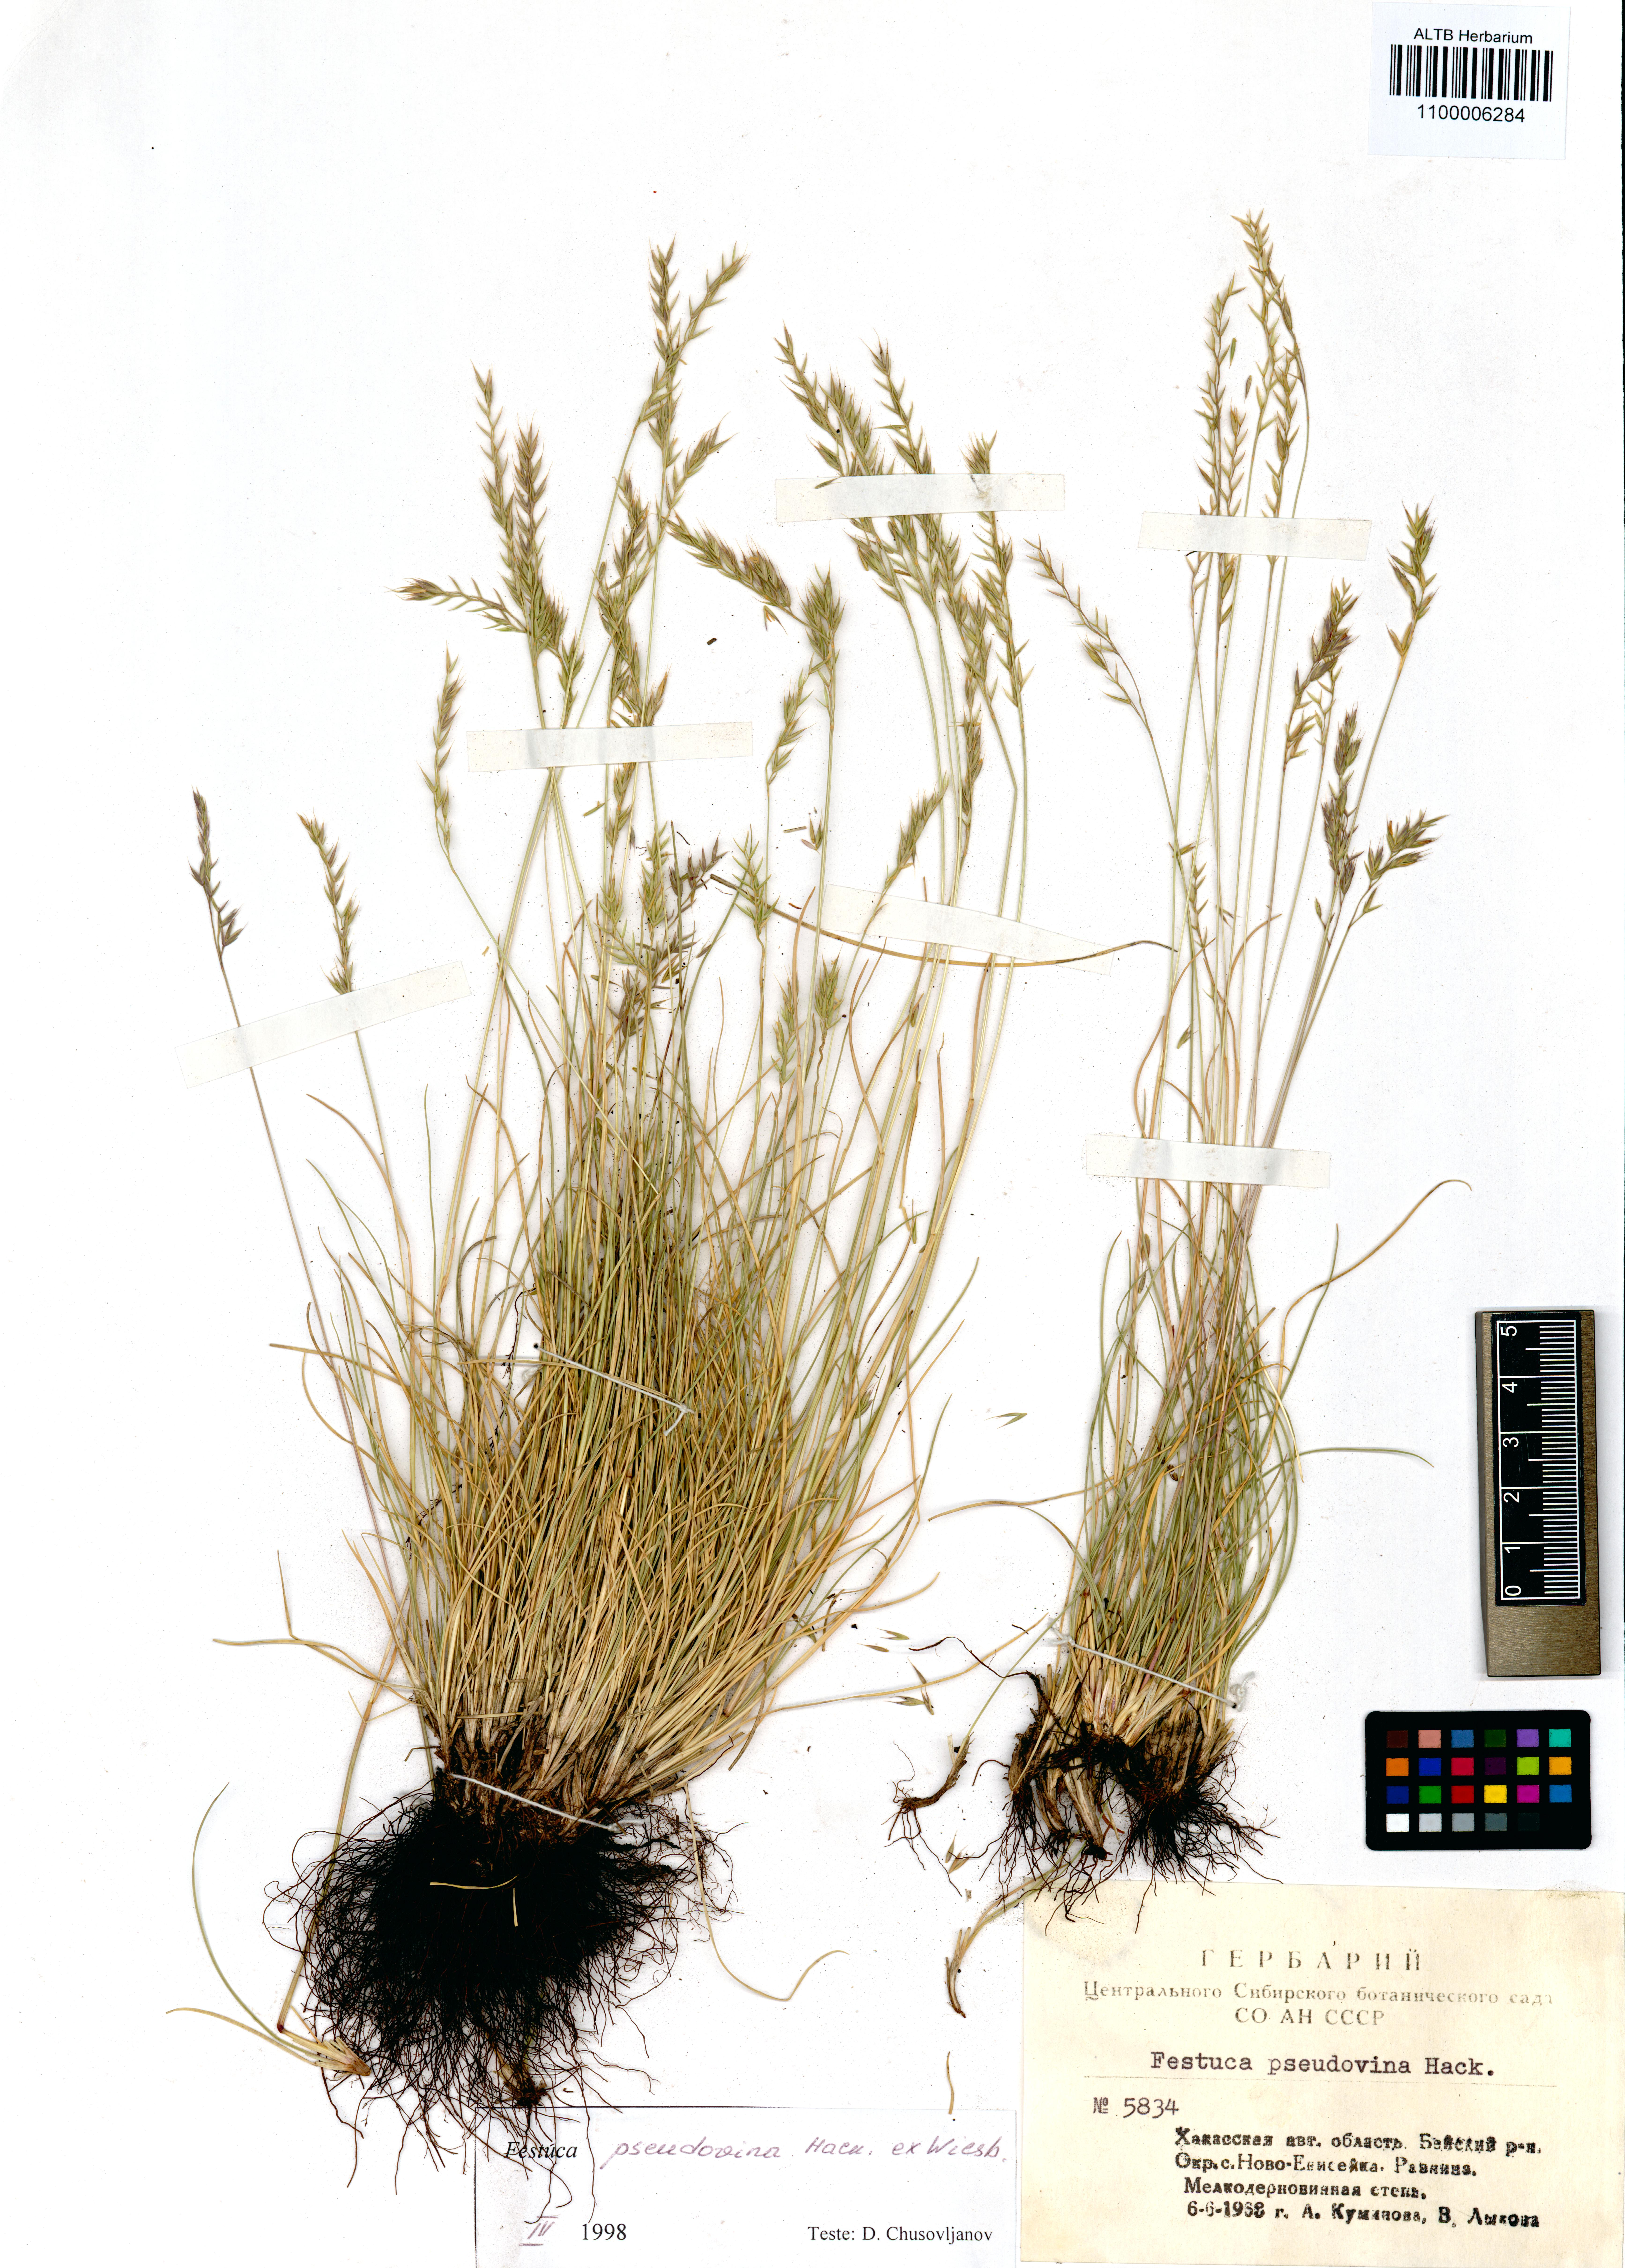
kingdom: Plantae
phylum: Tracheophyta
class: Liliopsida
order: Poales
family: Poaceae
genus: Festuca
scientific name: Festuca pulchra
